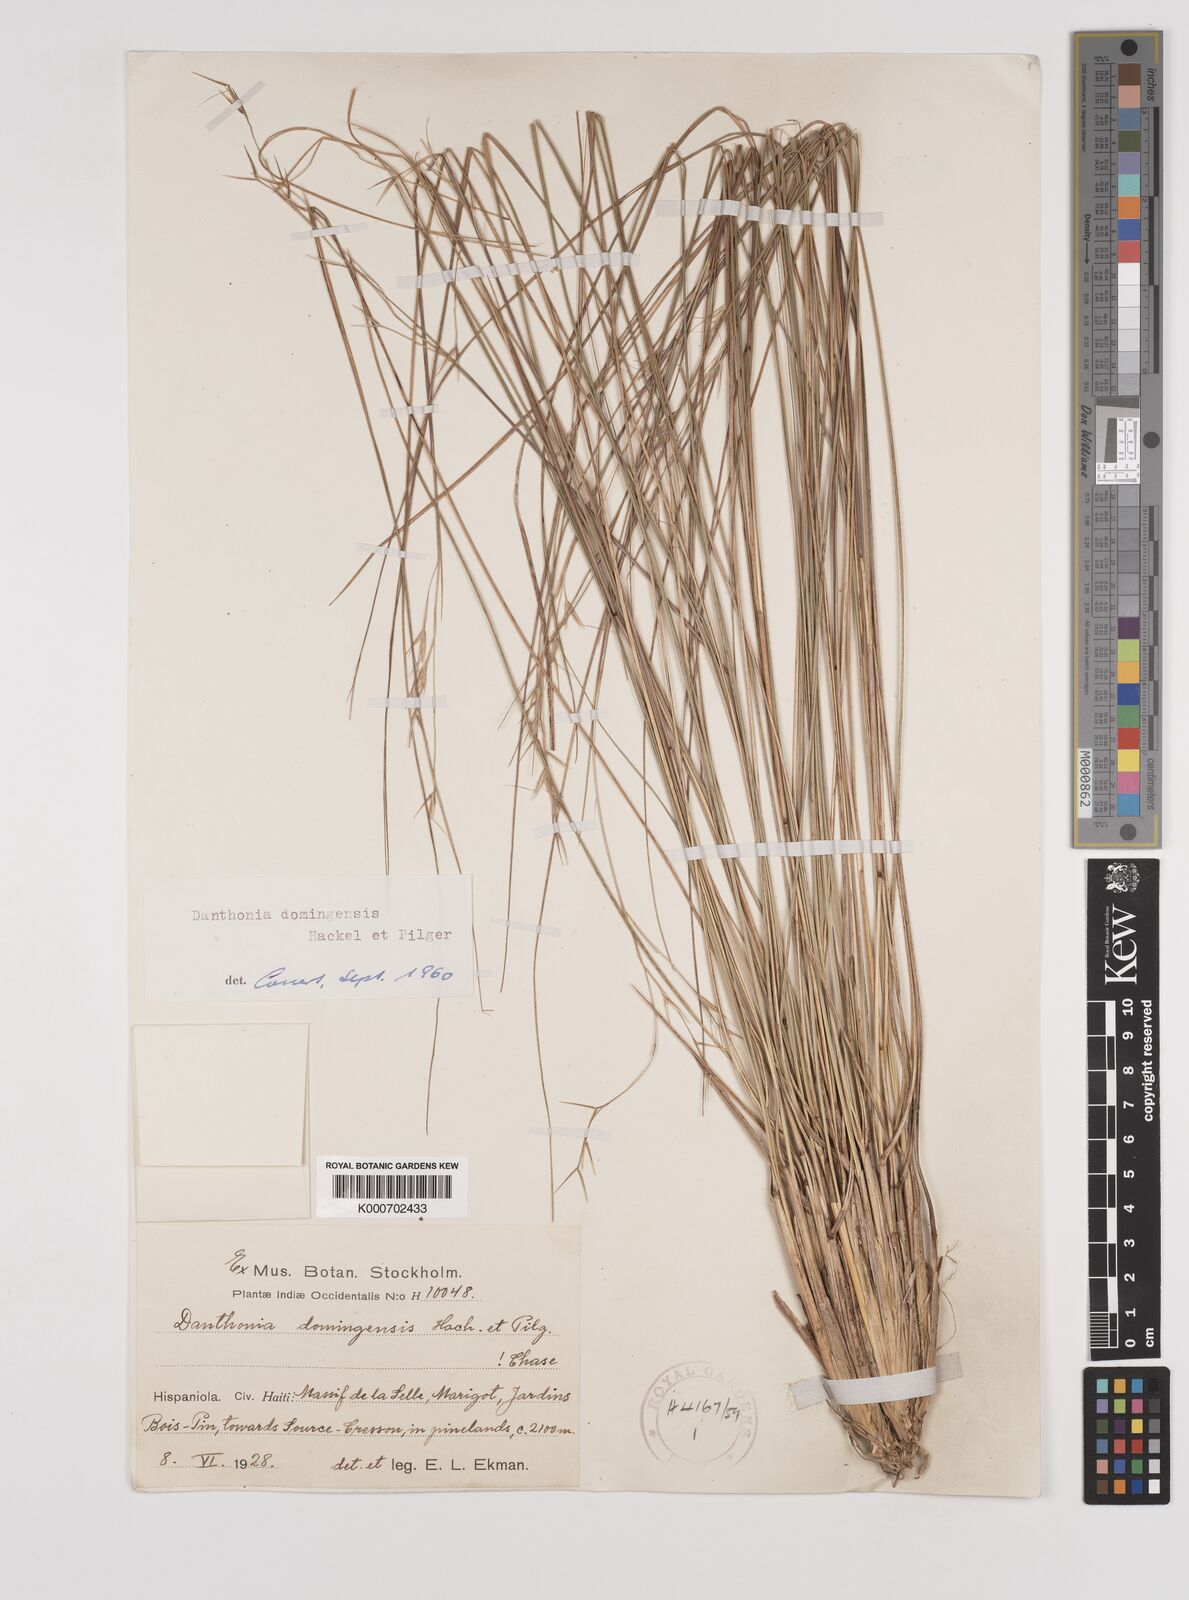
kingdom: Plantae
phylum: Tracheophyta
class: Liliopsida
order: Poales
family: Poaceae
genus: Danthonia
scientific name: Danthonia domingensis
